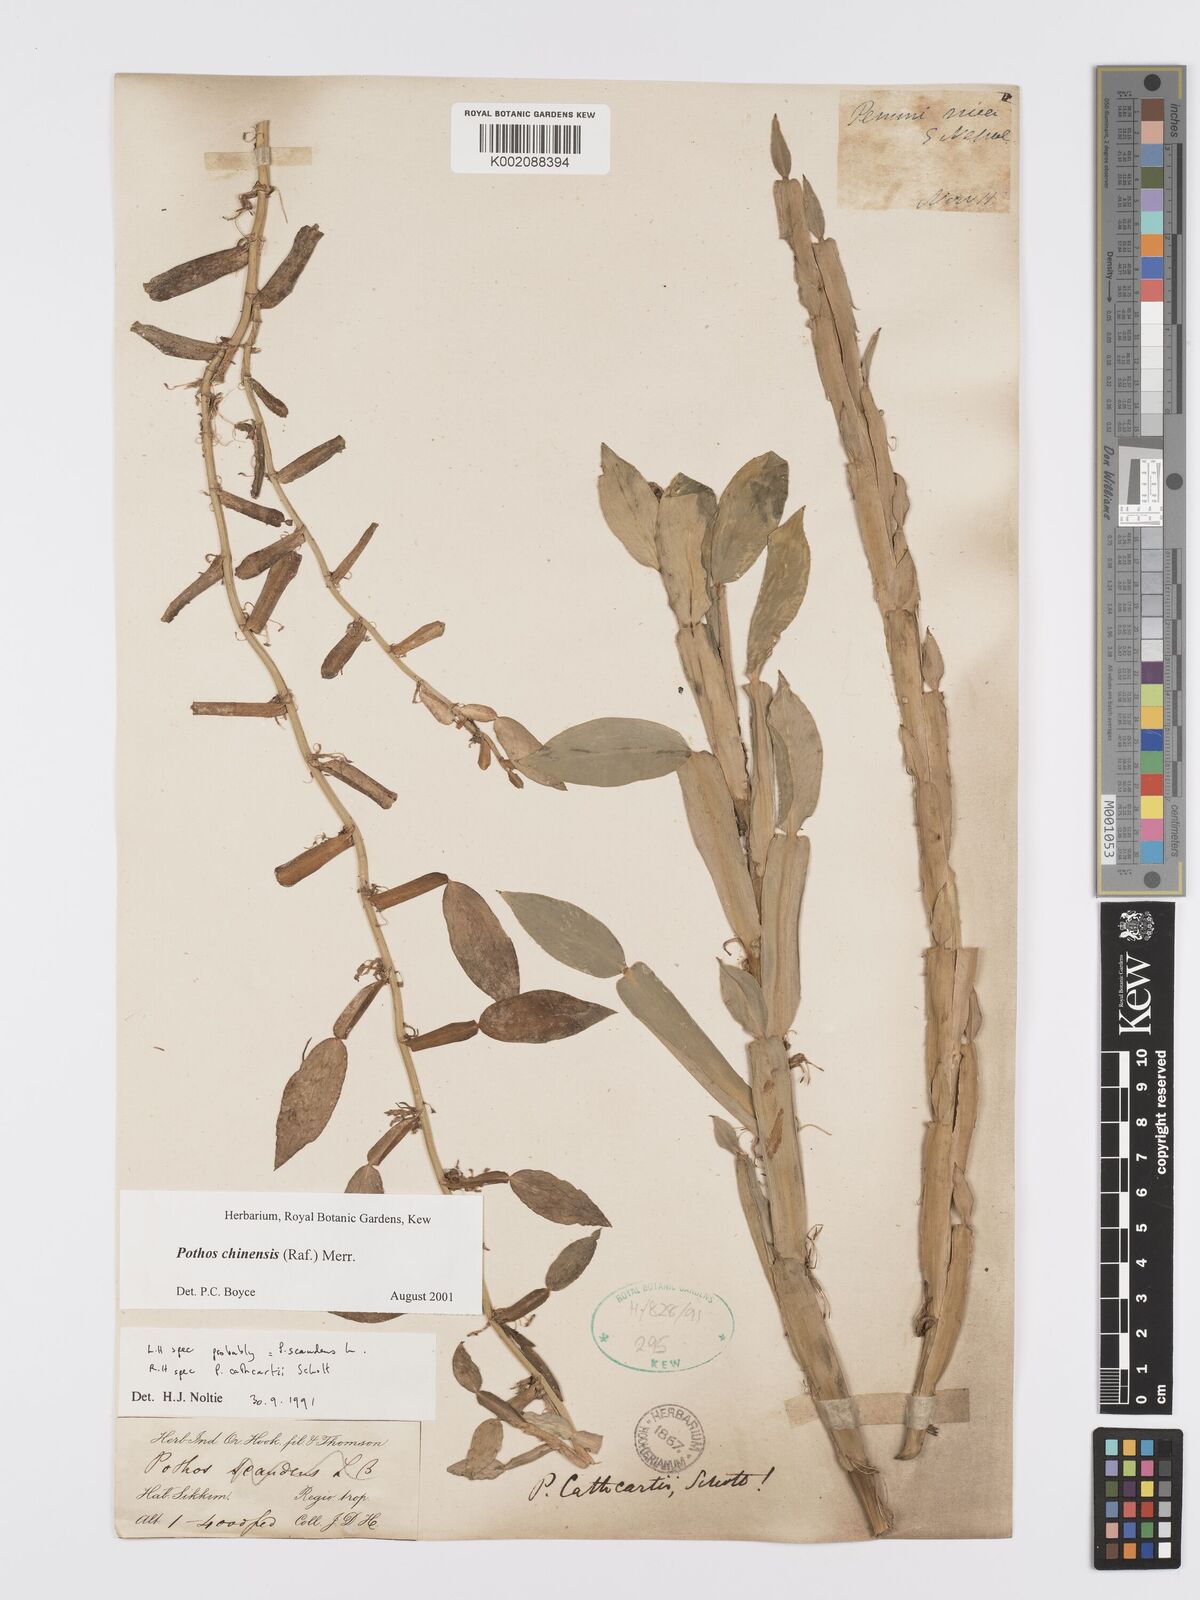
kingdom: Plantae
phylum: Tracheophyta
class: Liliopsida
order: Alismatales
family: Araceae
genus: Pothos
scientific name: Pothos chinensis
